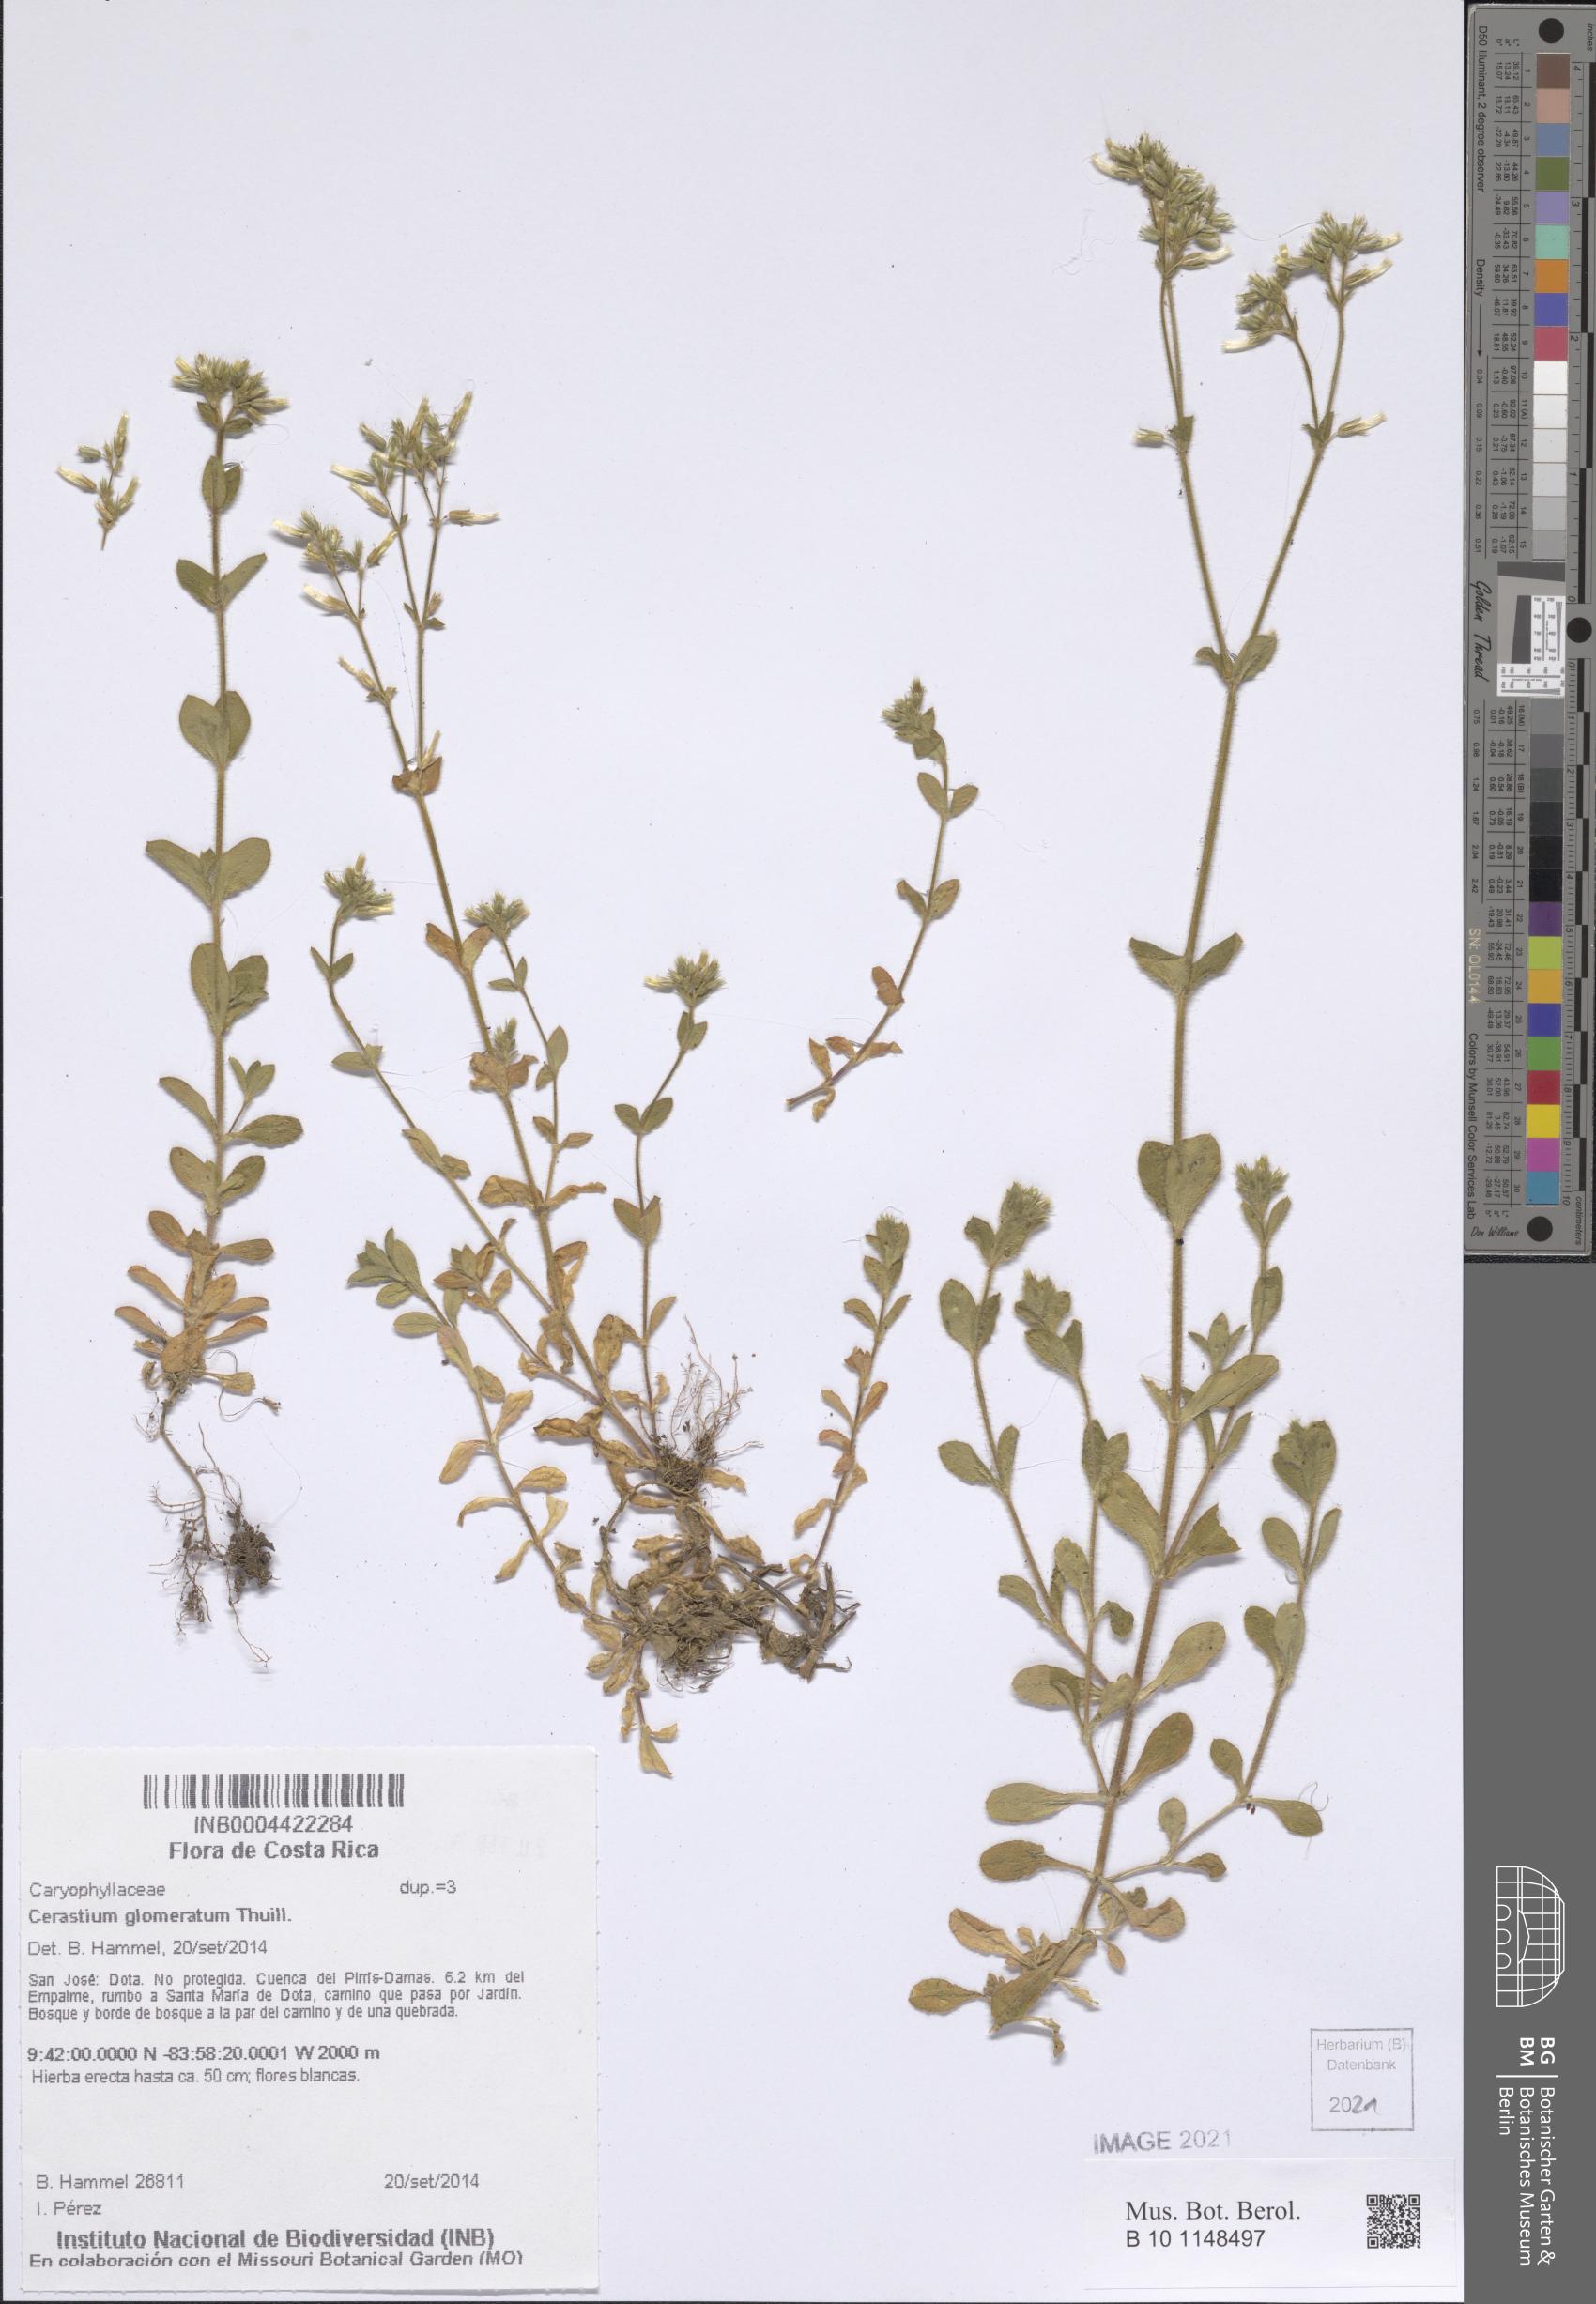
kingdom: Plantae
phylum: Tracheophyta
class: Magnoliopsida
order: Caryophyllales
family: Caryophyllaceae
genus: Cerastium
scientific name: Cerastium glomeratum
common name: Sticky chickweed
